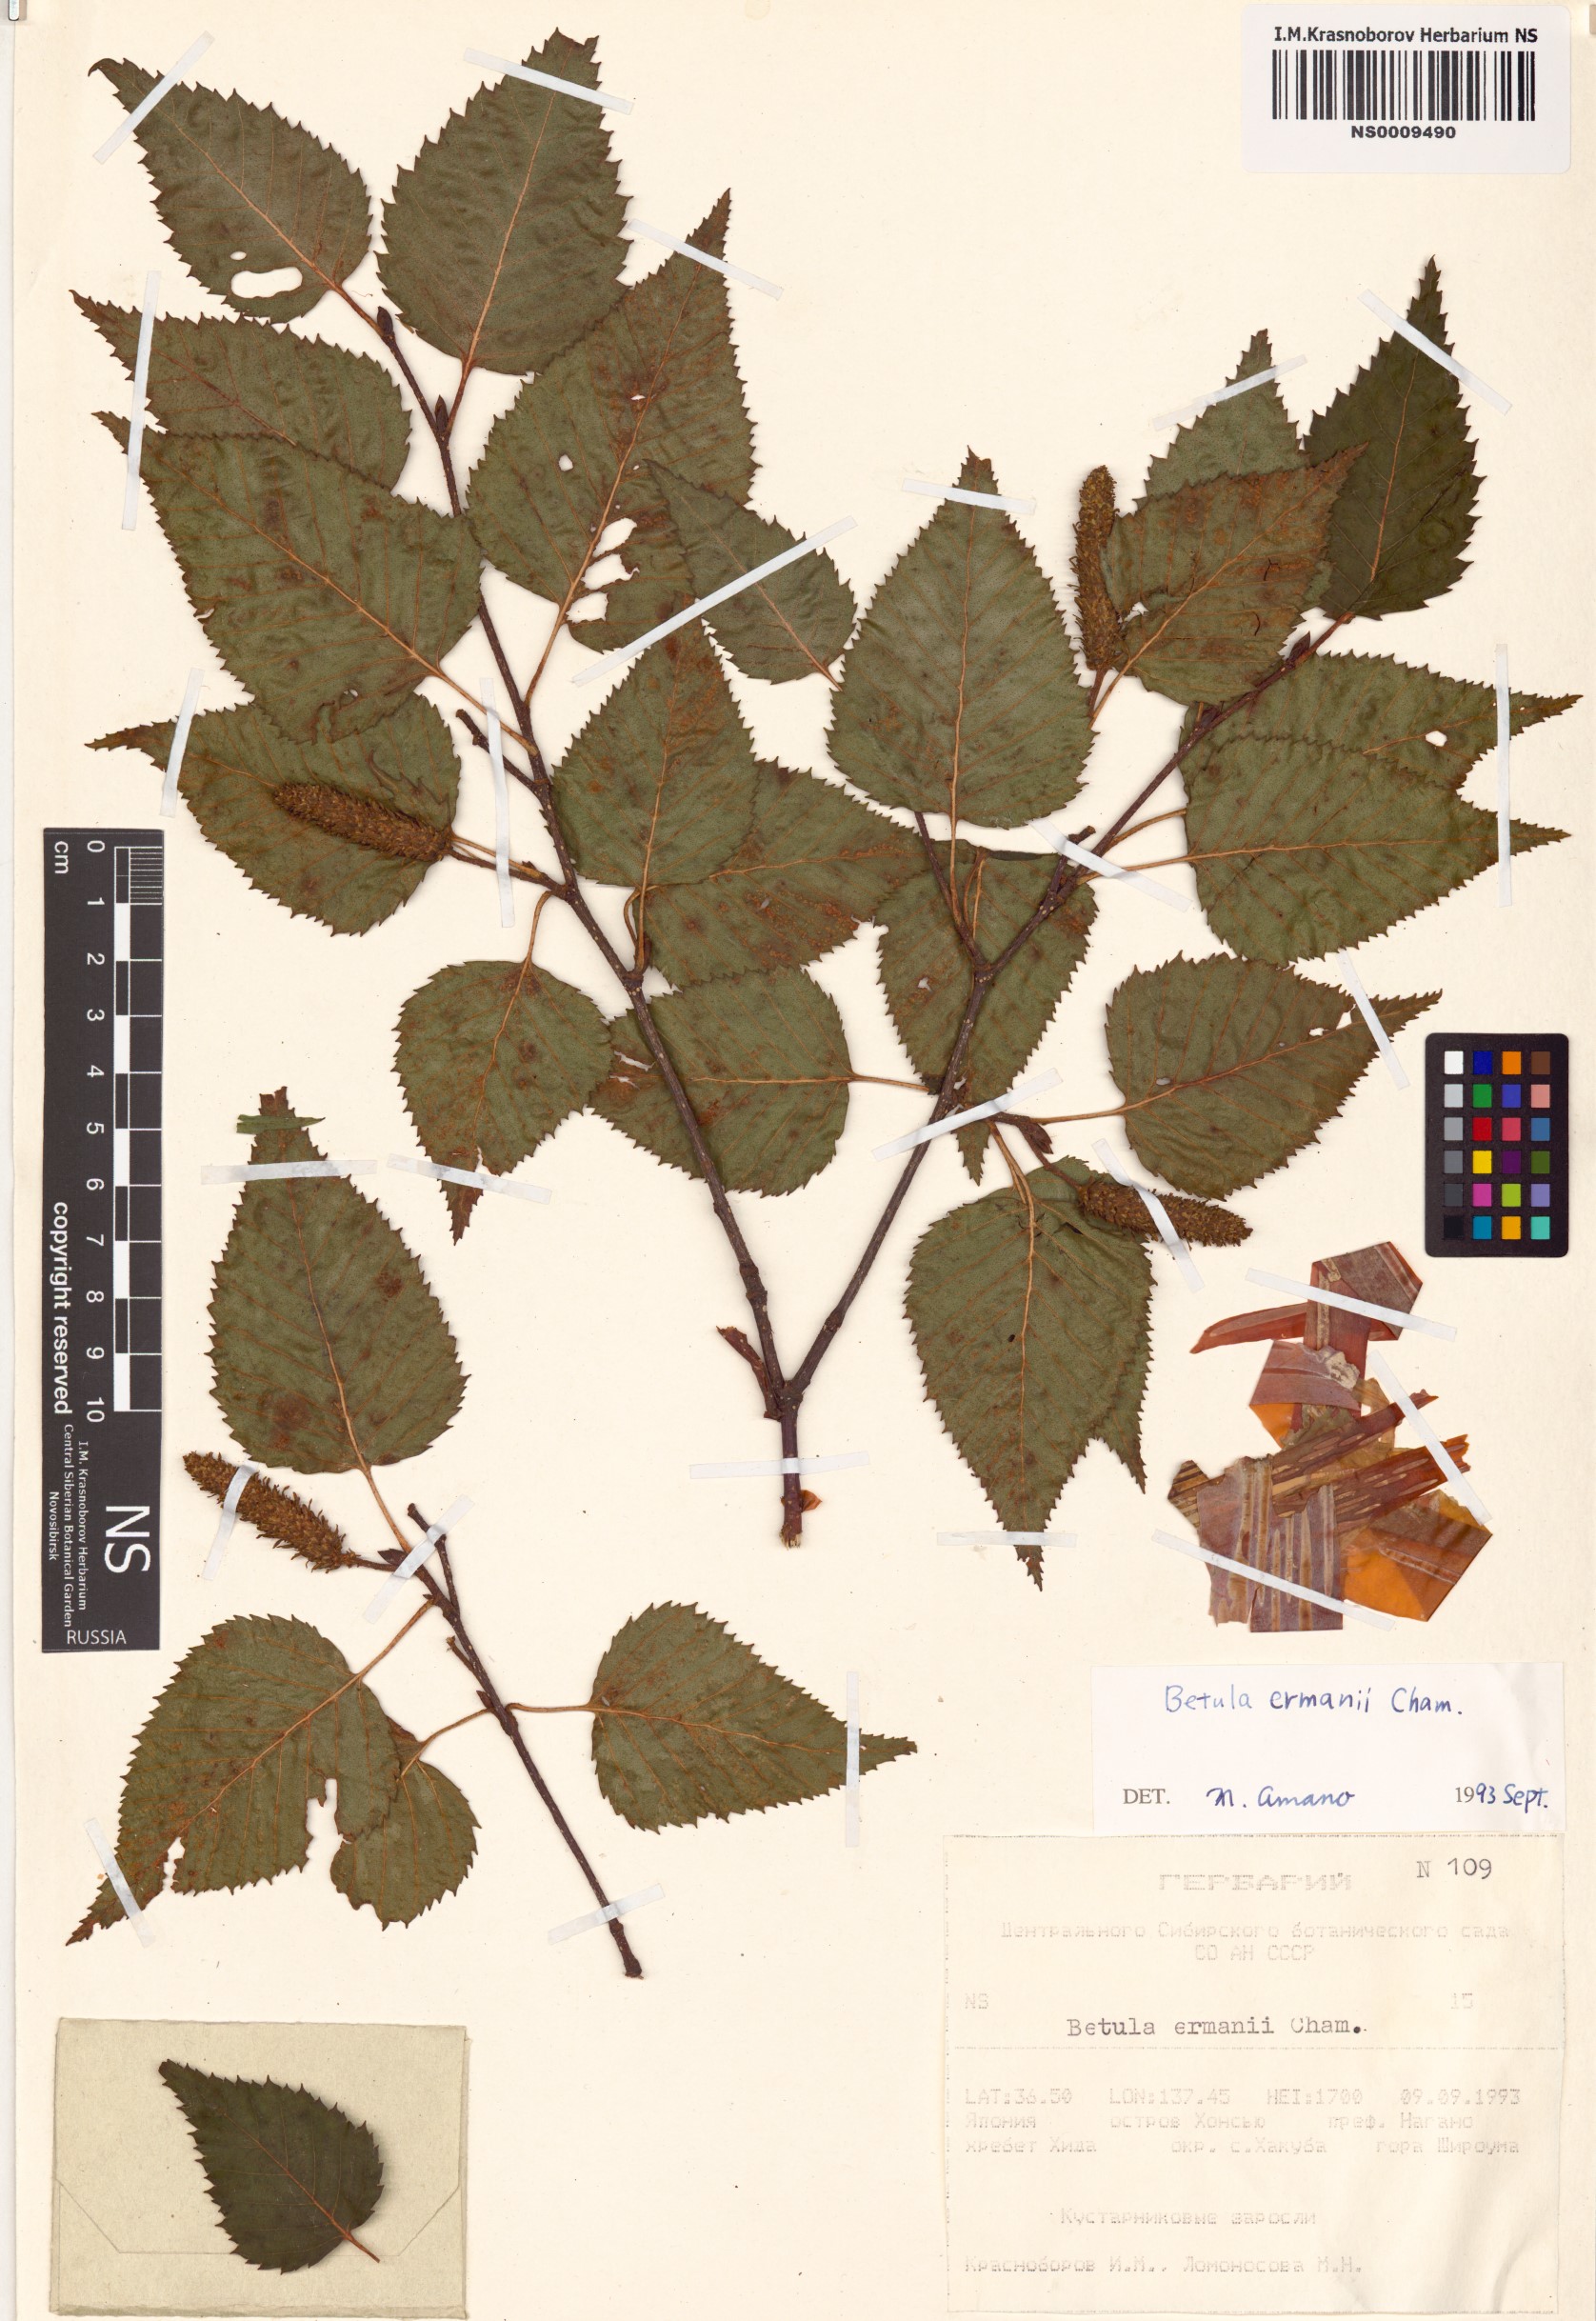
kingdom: Plantae
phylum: Tracheophyta
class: Magnoliopsida
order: Fagales
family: Betulaceae
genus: Betula
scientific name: Betula ermanii
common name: Erman's birch
